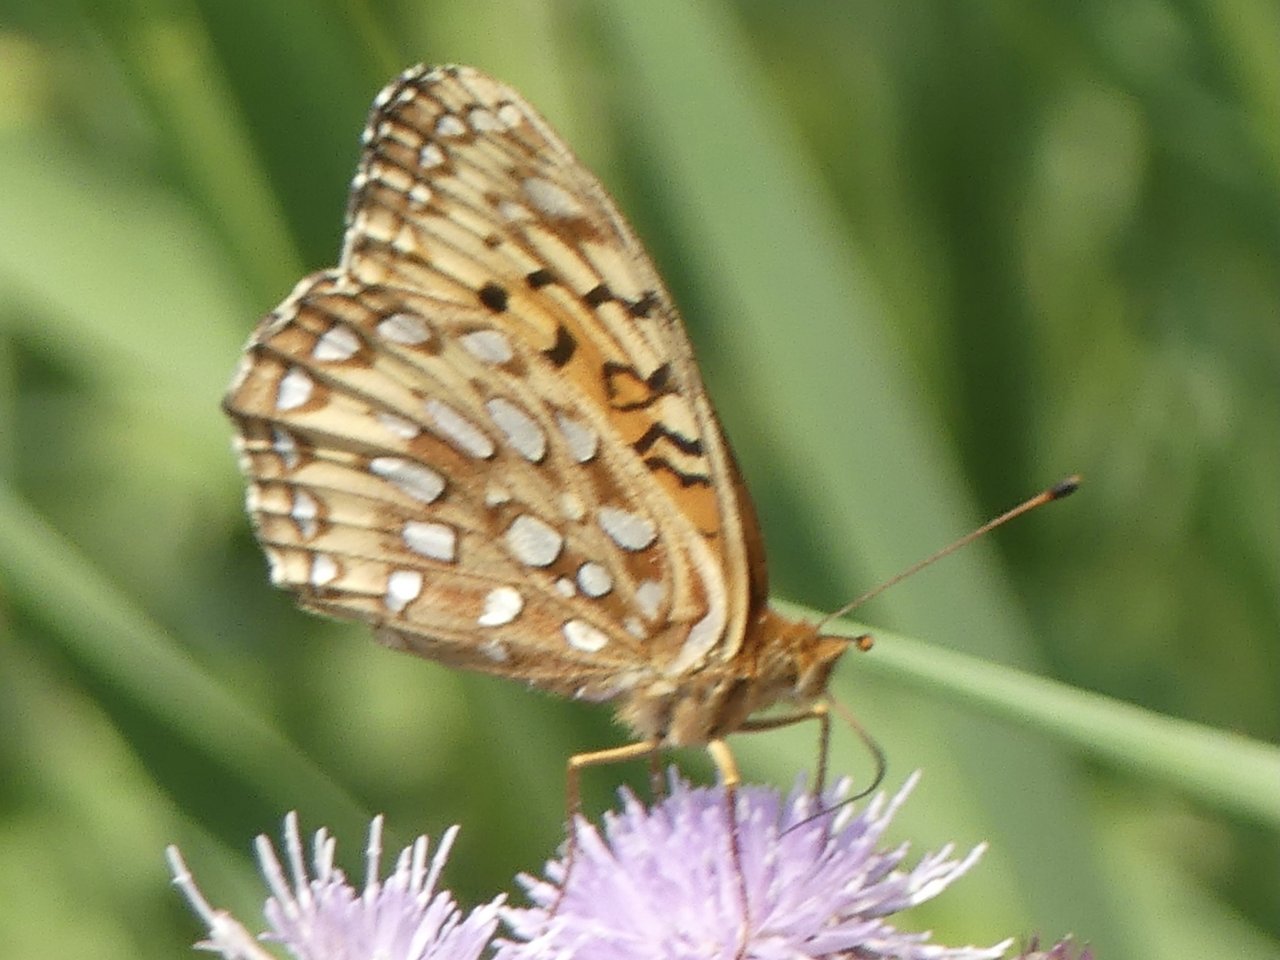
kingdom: Animalia
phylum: Arthropoda
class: Insecta
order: Lepidoptera
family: Nymphalidae
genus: Speyeria
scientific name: Speyeria aphrodite
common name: Aphrodite Fritillary
